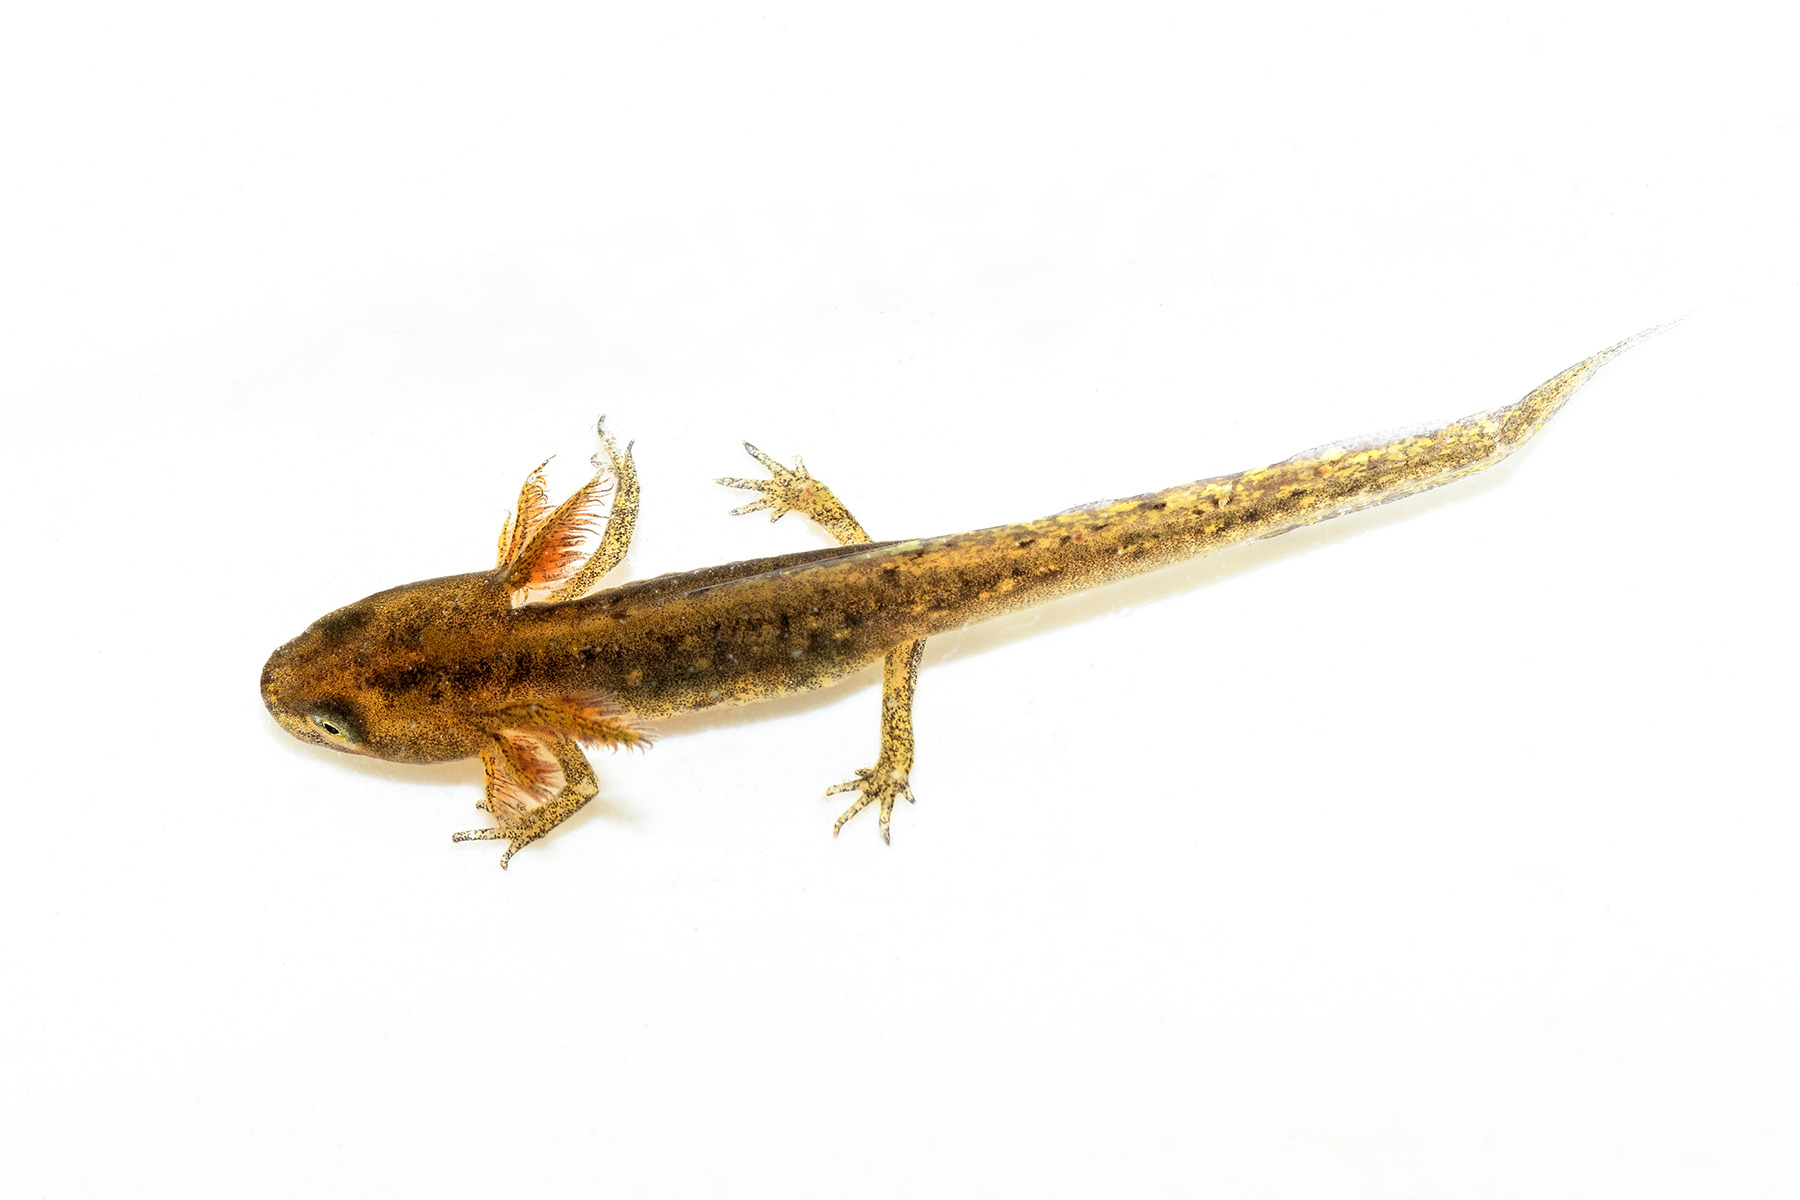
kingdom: Animalia
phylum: Chordata
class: Amphibia
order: Caudata
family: Salamandridae
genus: Lissotriton
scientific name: Lissotriton vulgaris
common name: Lille vandsalamander
